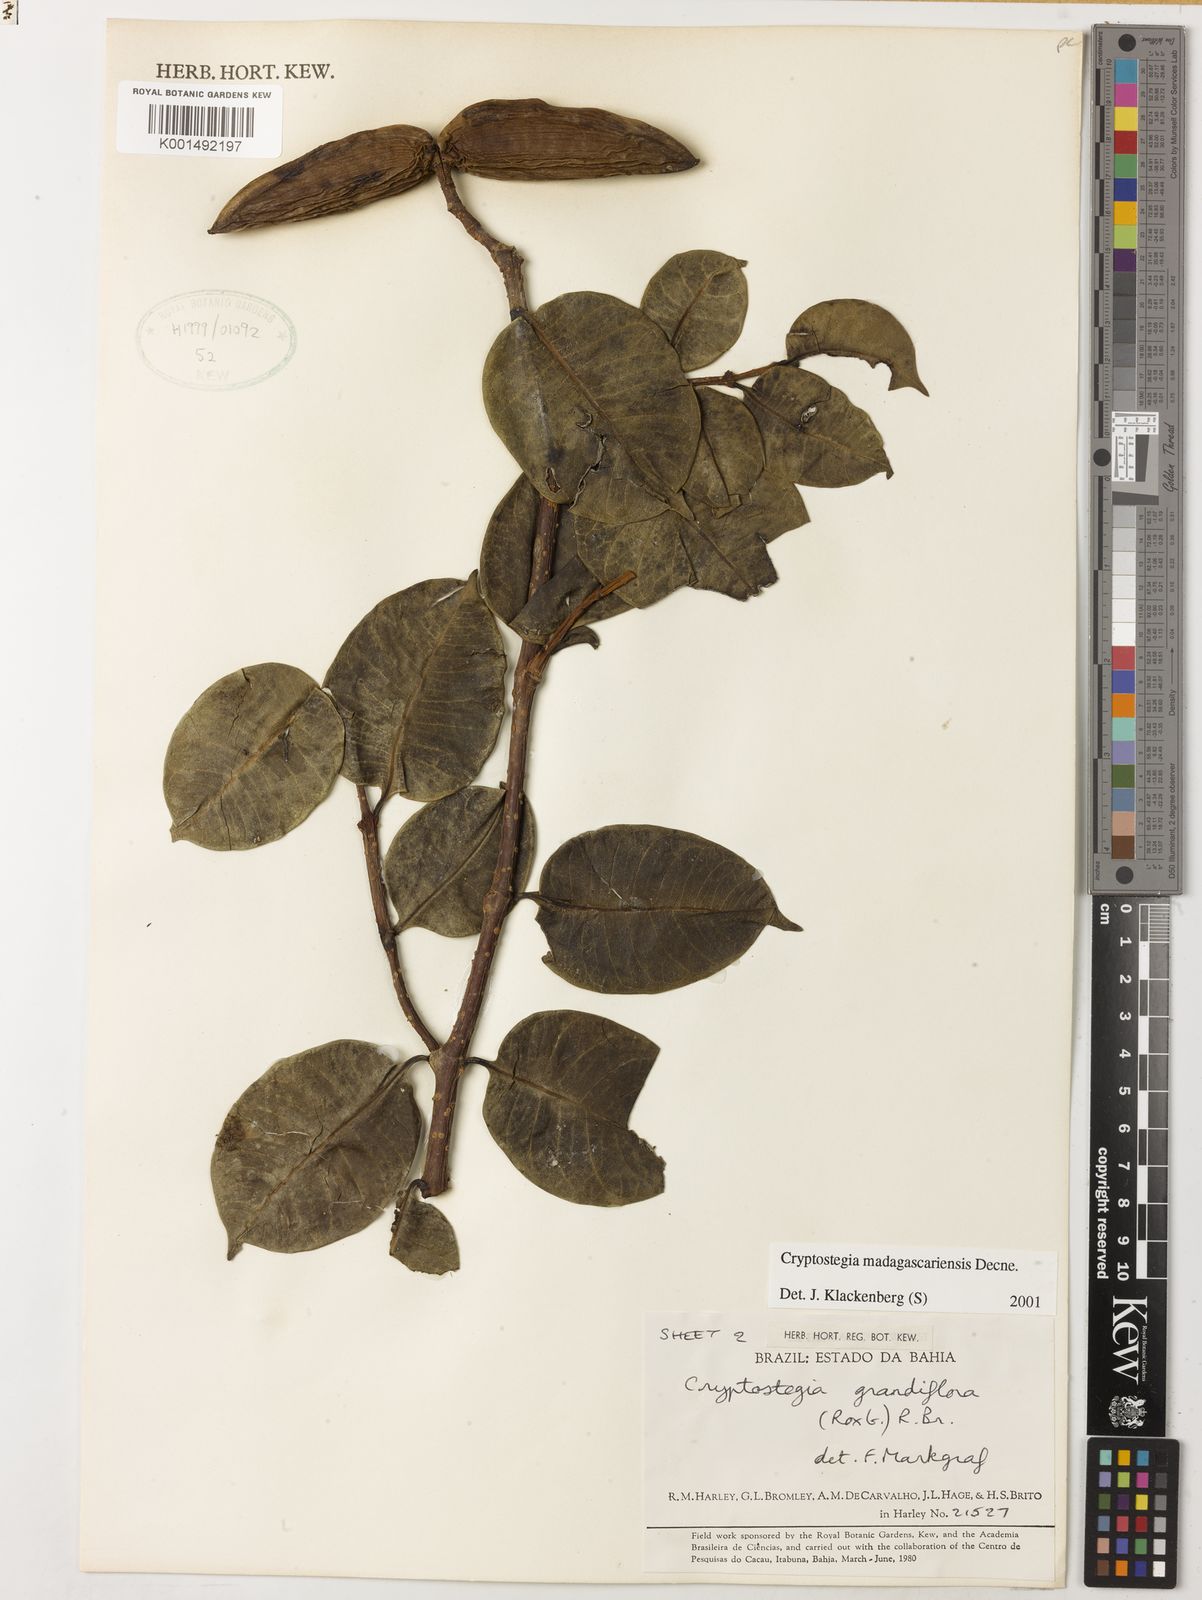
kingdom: Plantae
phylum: Tracheophyta
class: Magnoliopsida
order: Gentianales
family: Apocynaceae
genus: Cryptostegia
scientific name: Cryptostegia madagascariensis
